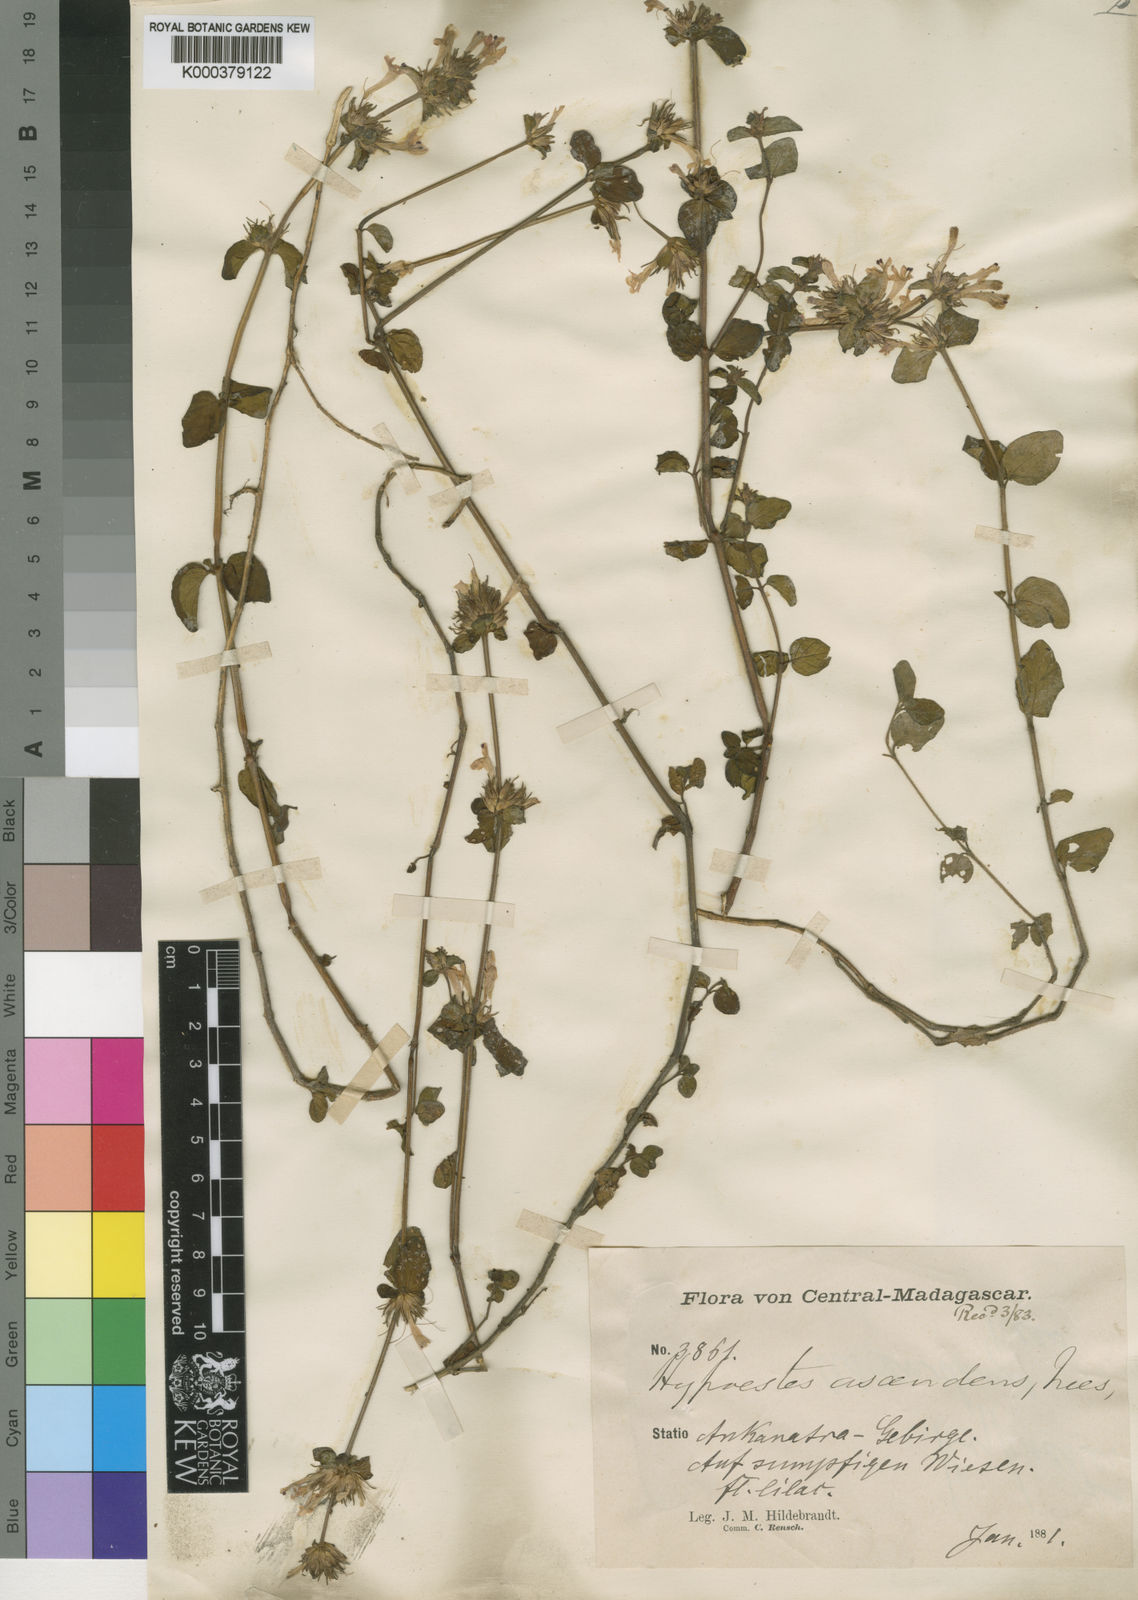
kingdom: Plantae
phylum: Tracheophyta
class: Magnoliopsida
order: Lamiales
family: Acanthaceae
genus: Hypoestes
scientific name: Hypoestes elliotii
